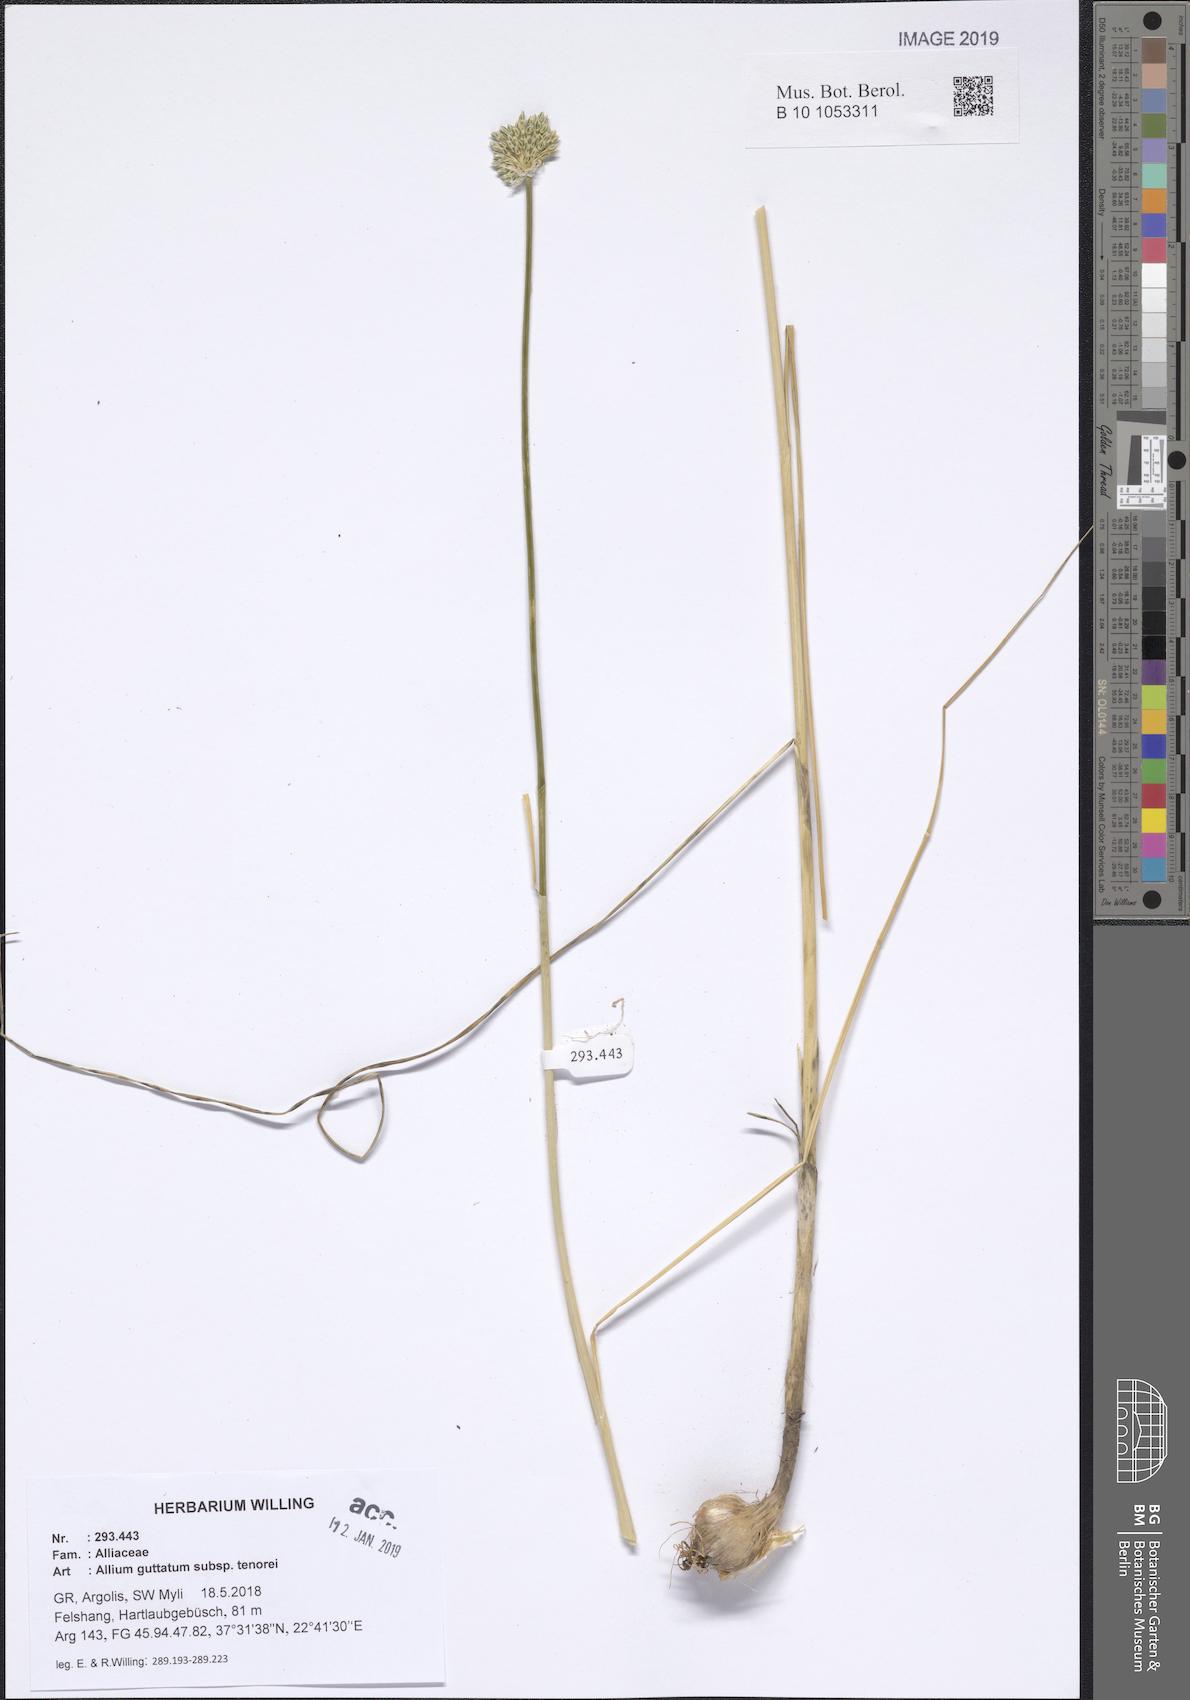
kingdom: Plantae
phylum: Tracheophyta
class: Liliopsida
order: Asparagales
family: Amaryllidaceae
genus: Allium
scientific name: Allium sardoum
